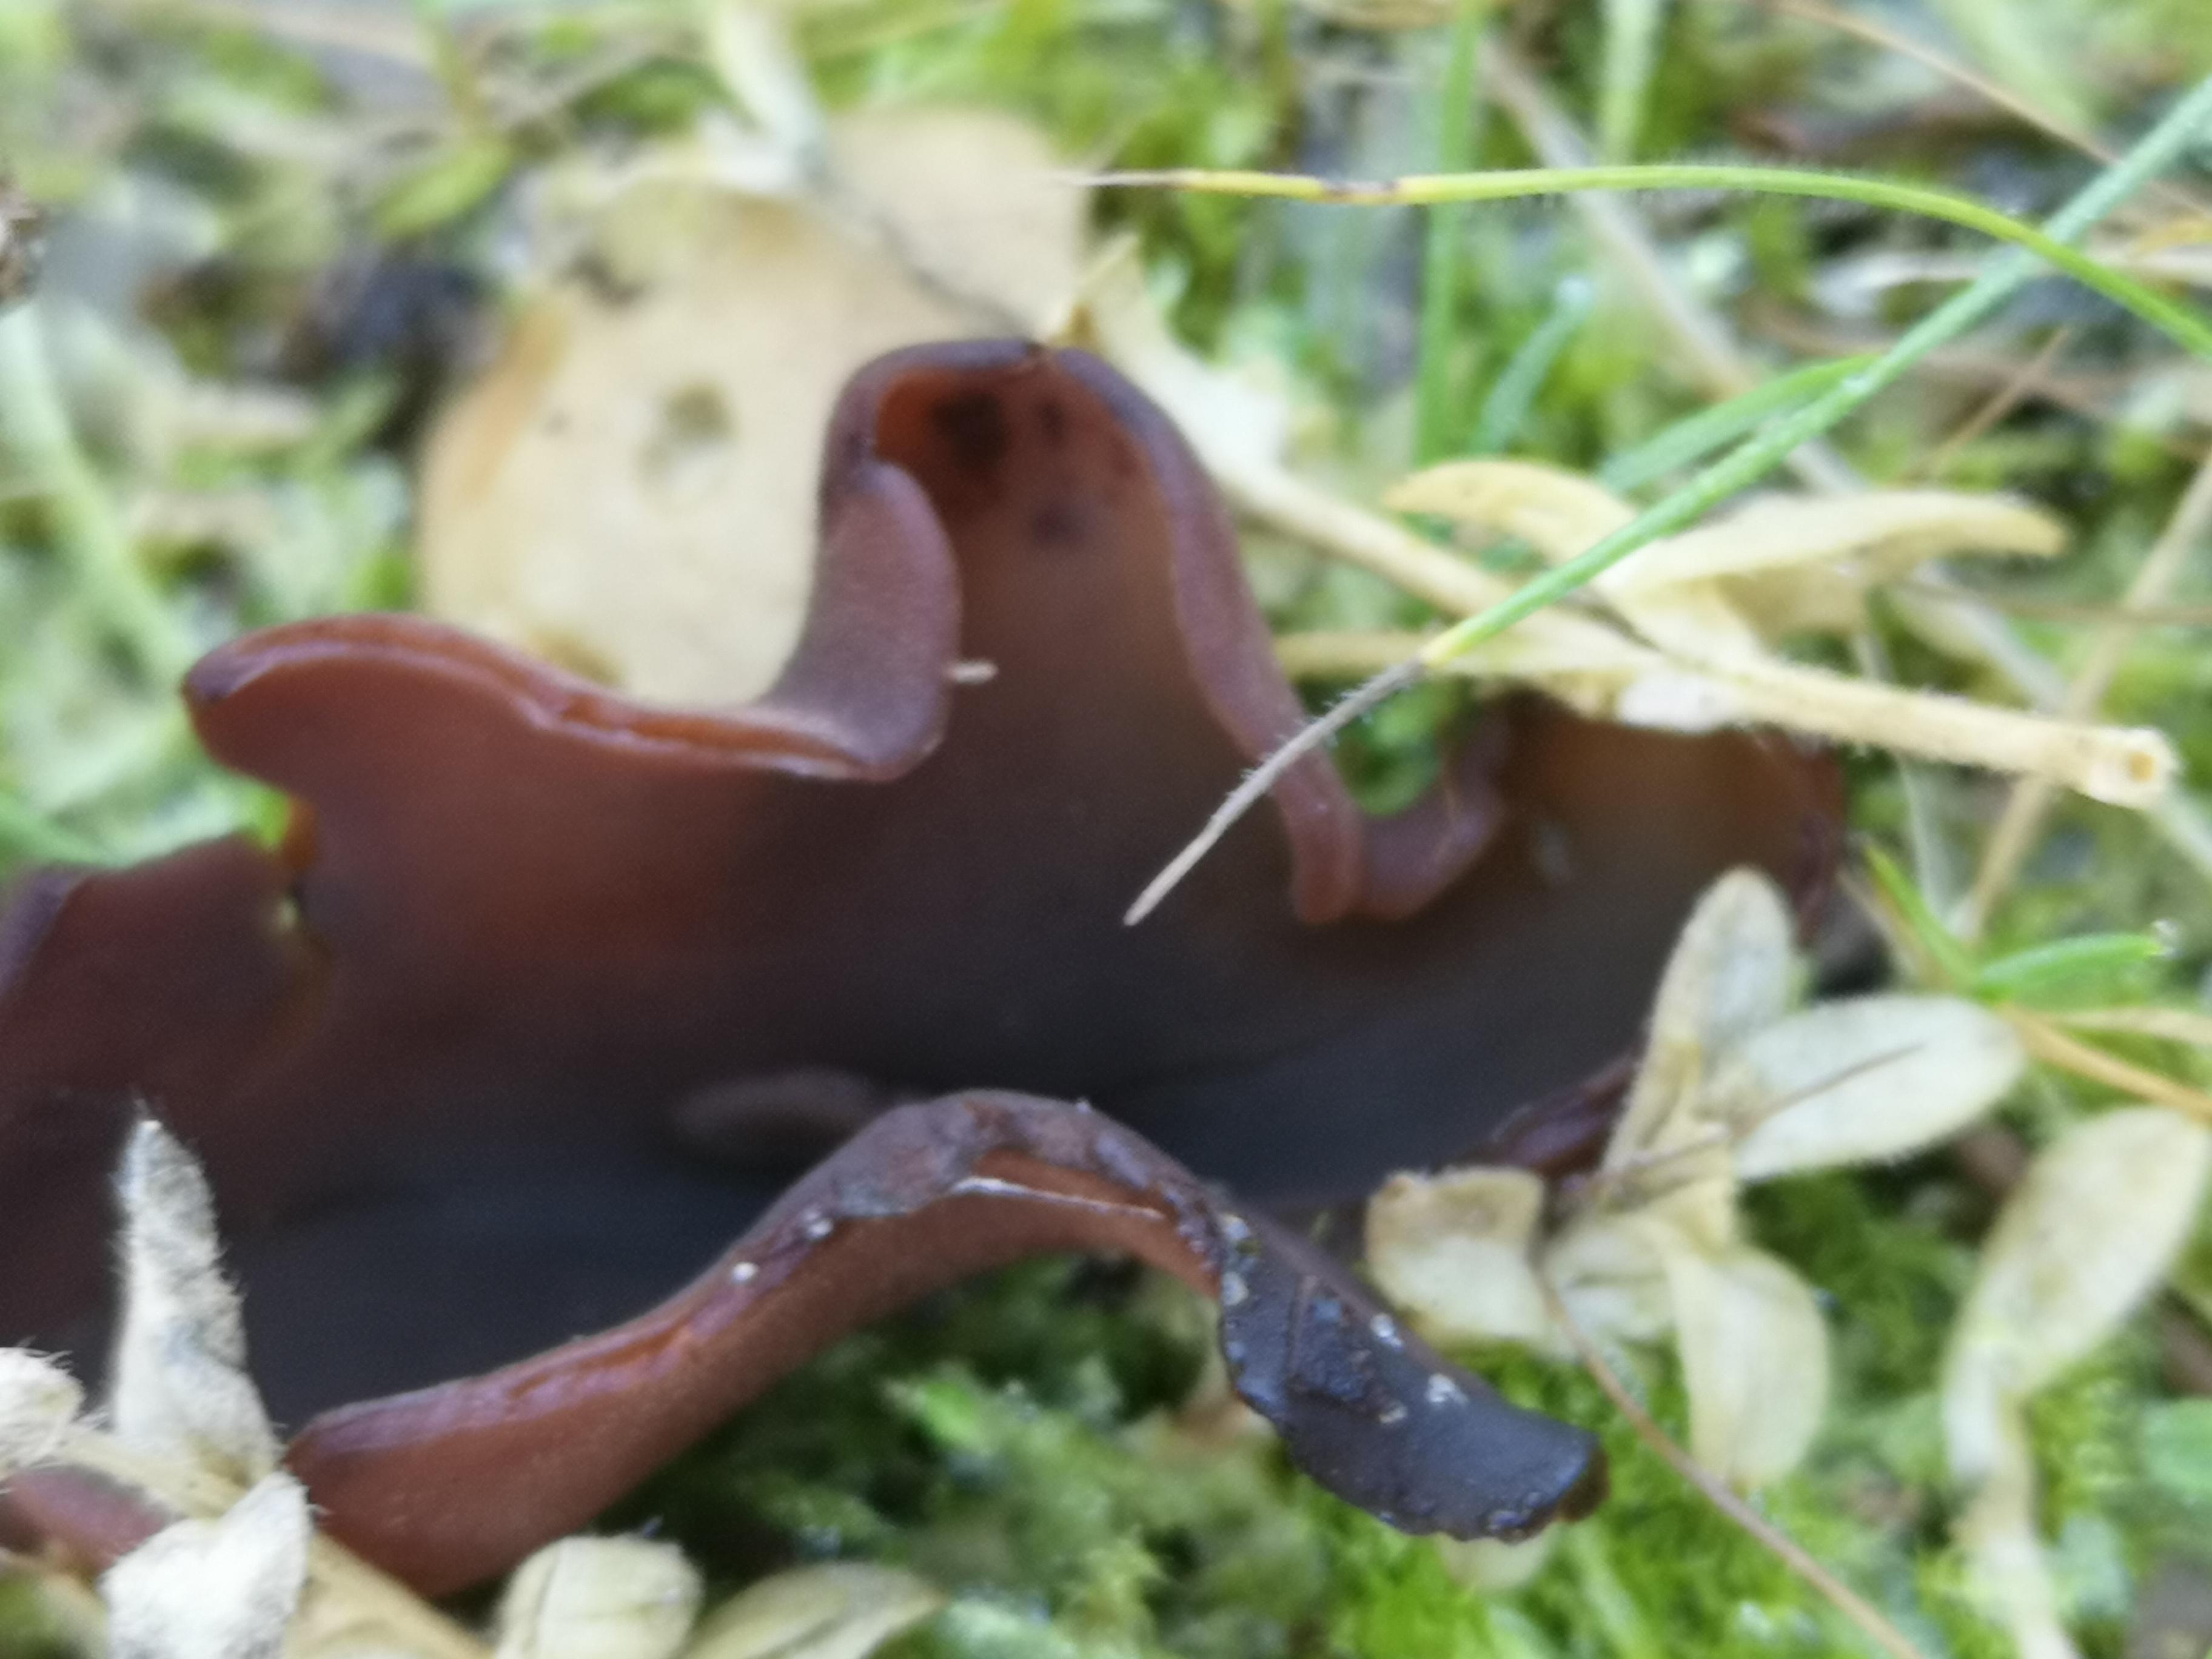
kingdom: Fungi
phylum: Ascomycota
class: Pezizomycetes
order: Pezizales
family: Pezizaceae
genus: Legaliana
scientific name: Legaliana badia
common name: leverbrun bægersvamp
